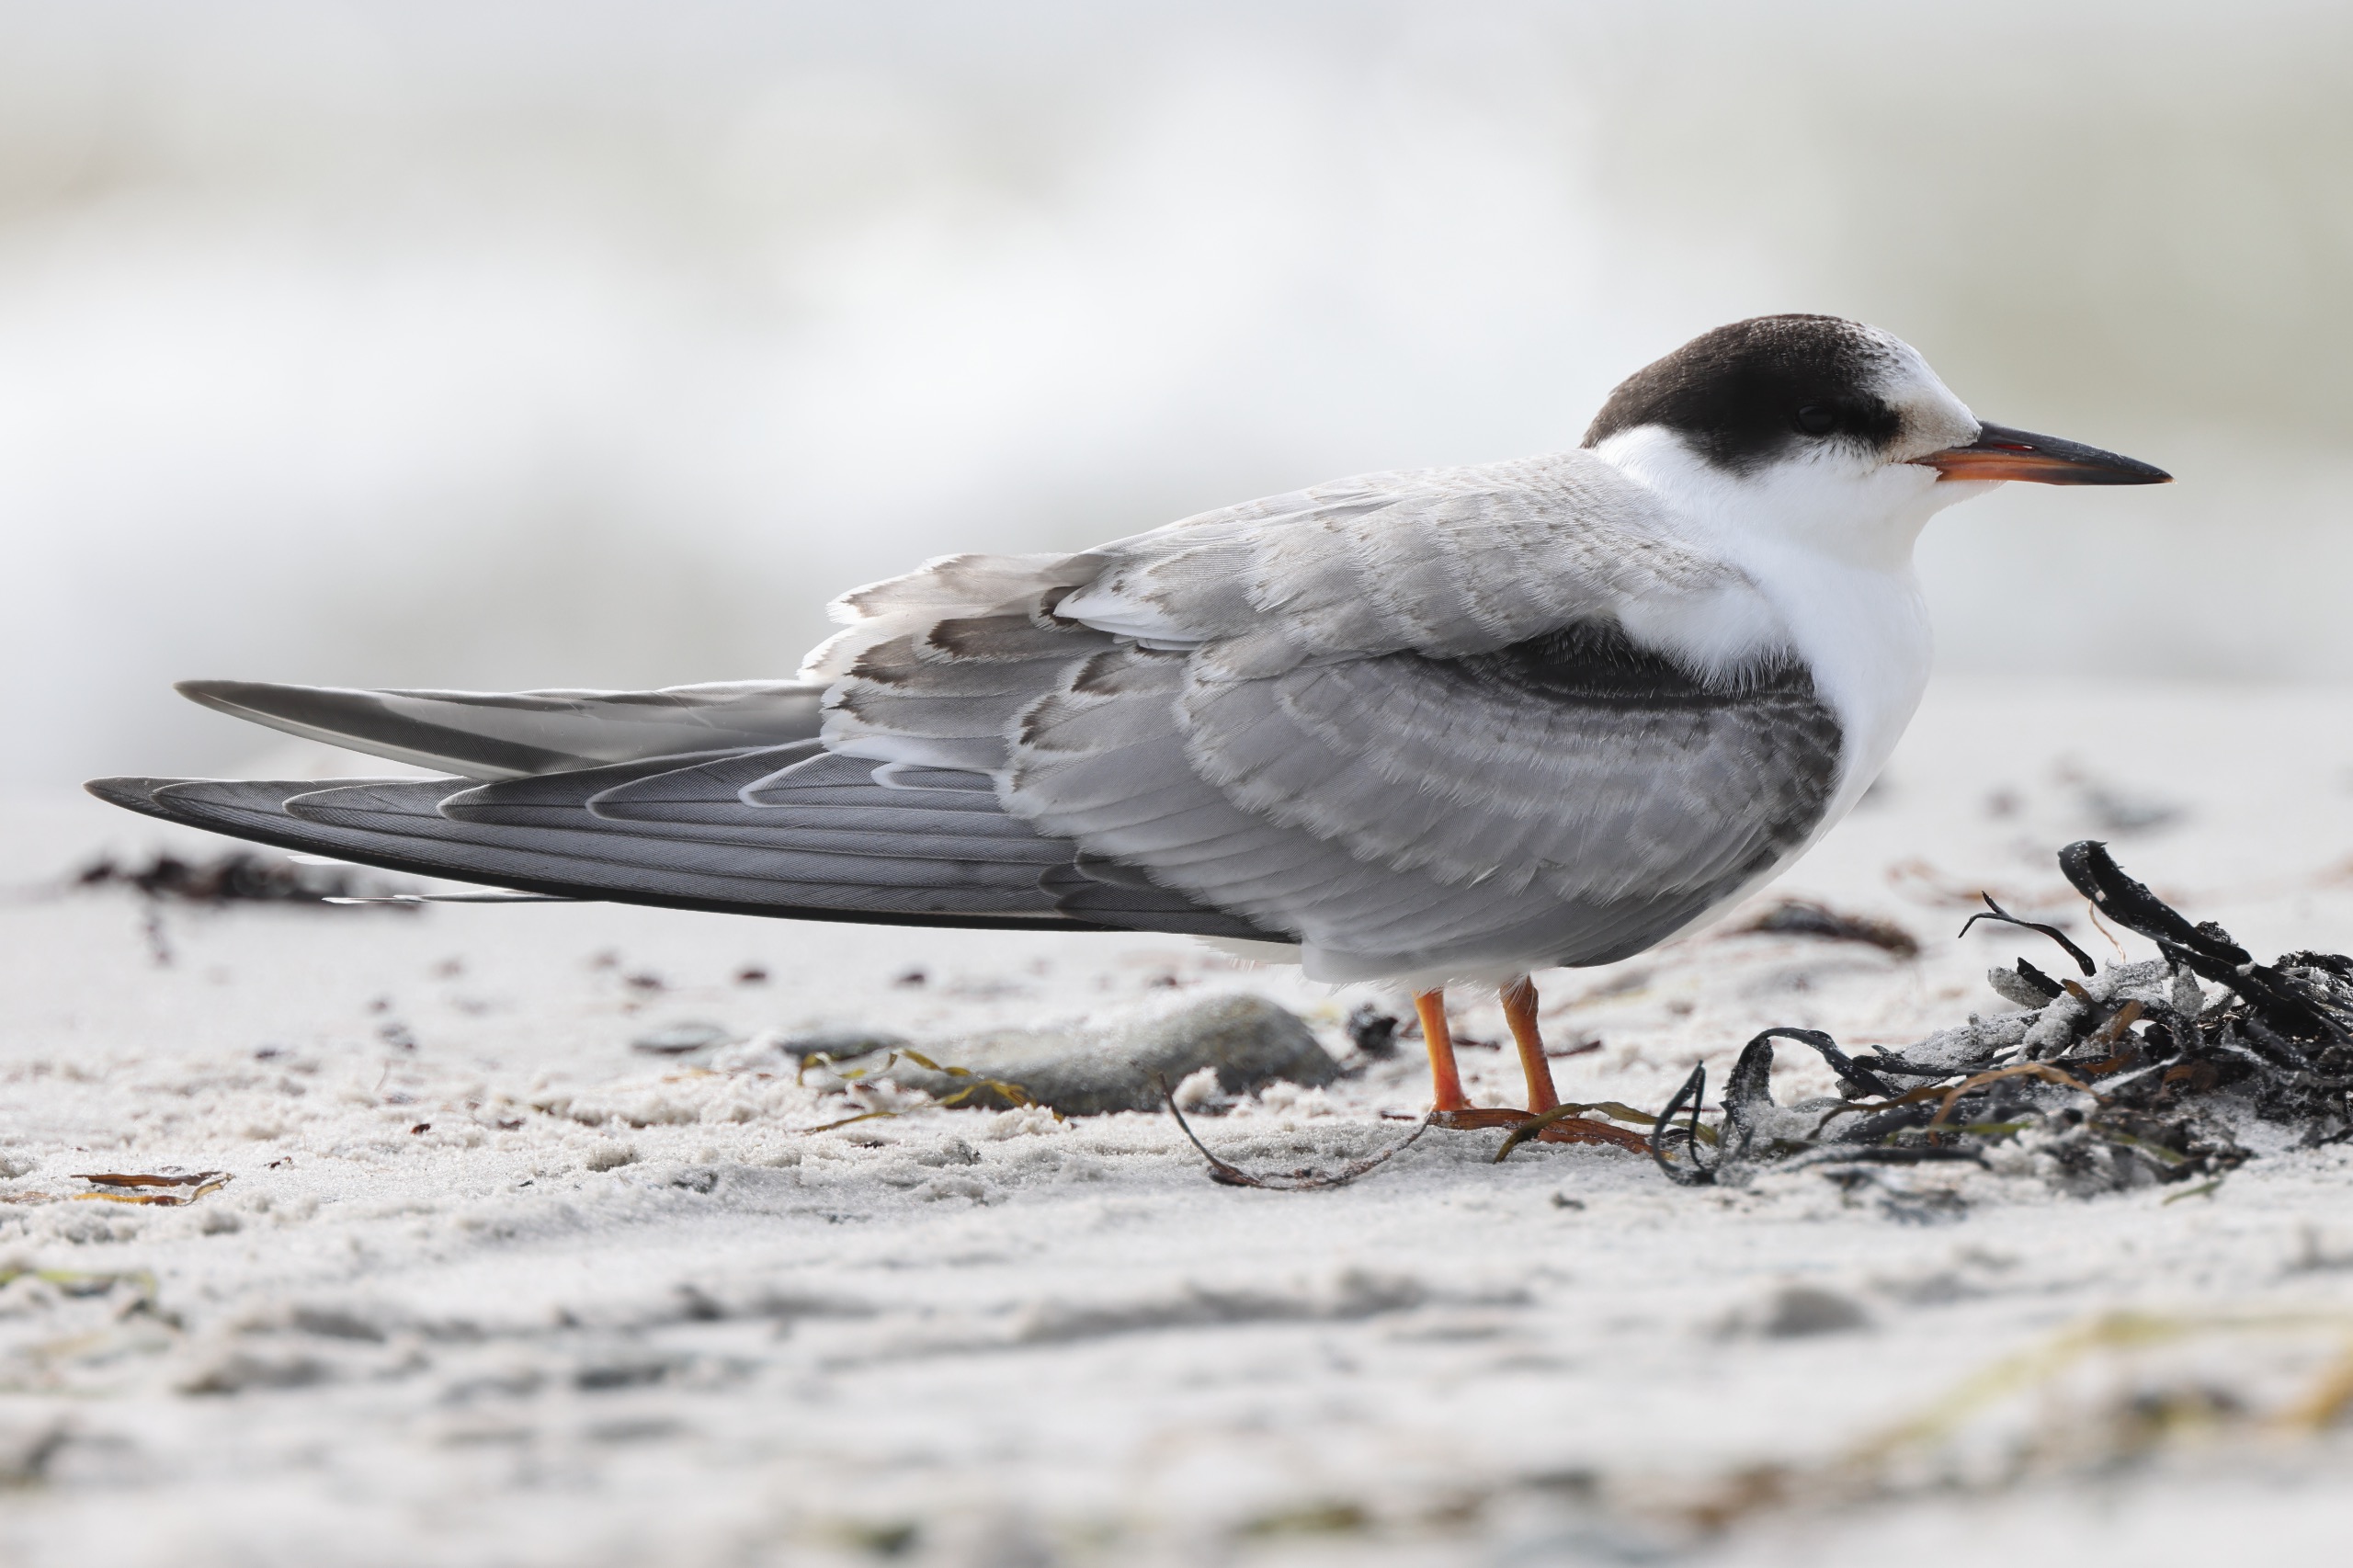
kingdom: Animalia
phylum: Chordata
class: Aves
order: Charadriiformes
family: Laridae
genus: Sterna
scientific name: Sterna hirundo
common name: Fjordterne
